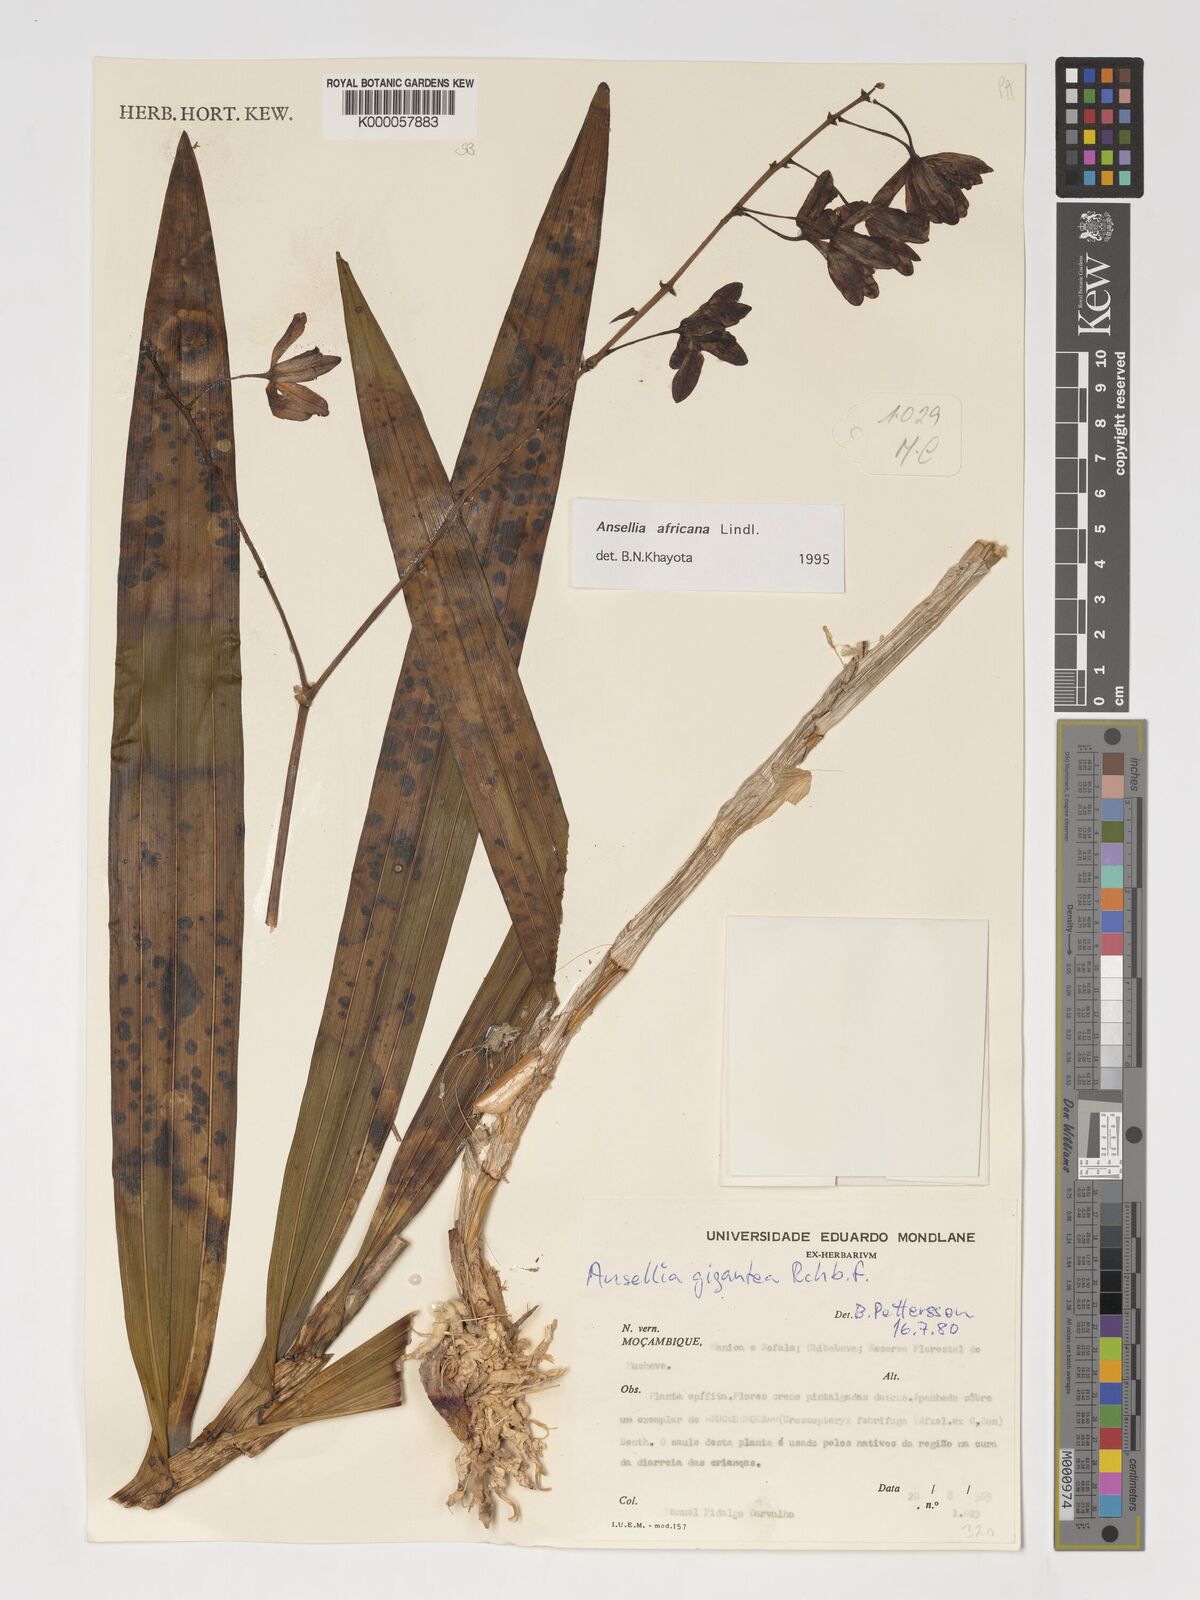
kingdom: Plantae
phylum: Tracheophyta
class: Liliopsida
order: Asparagales
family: Orchidaceae
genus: Ansellia
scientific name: Ansellia africana
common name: African ansellia
